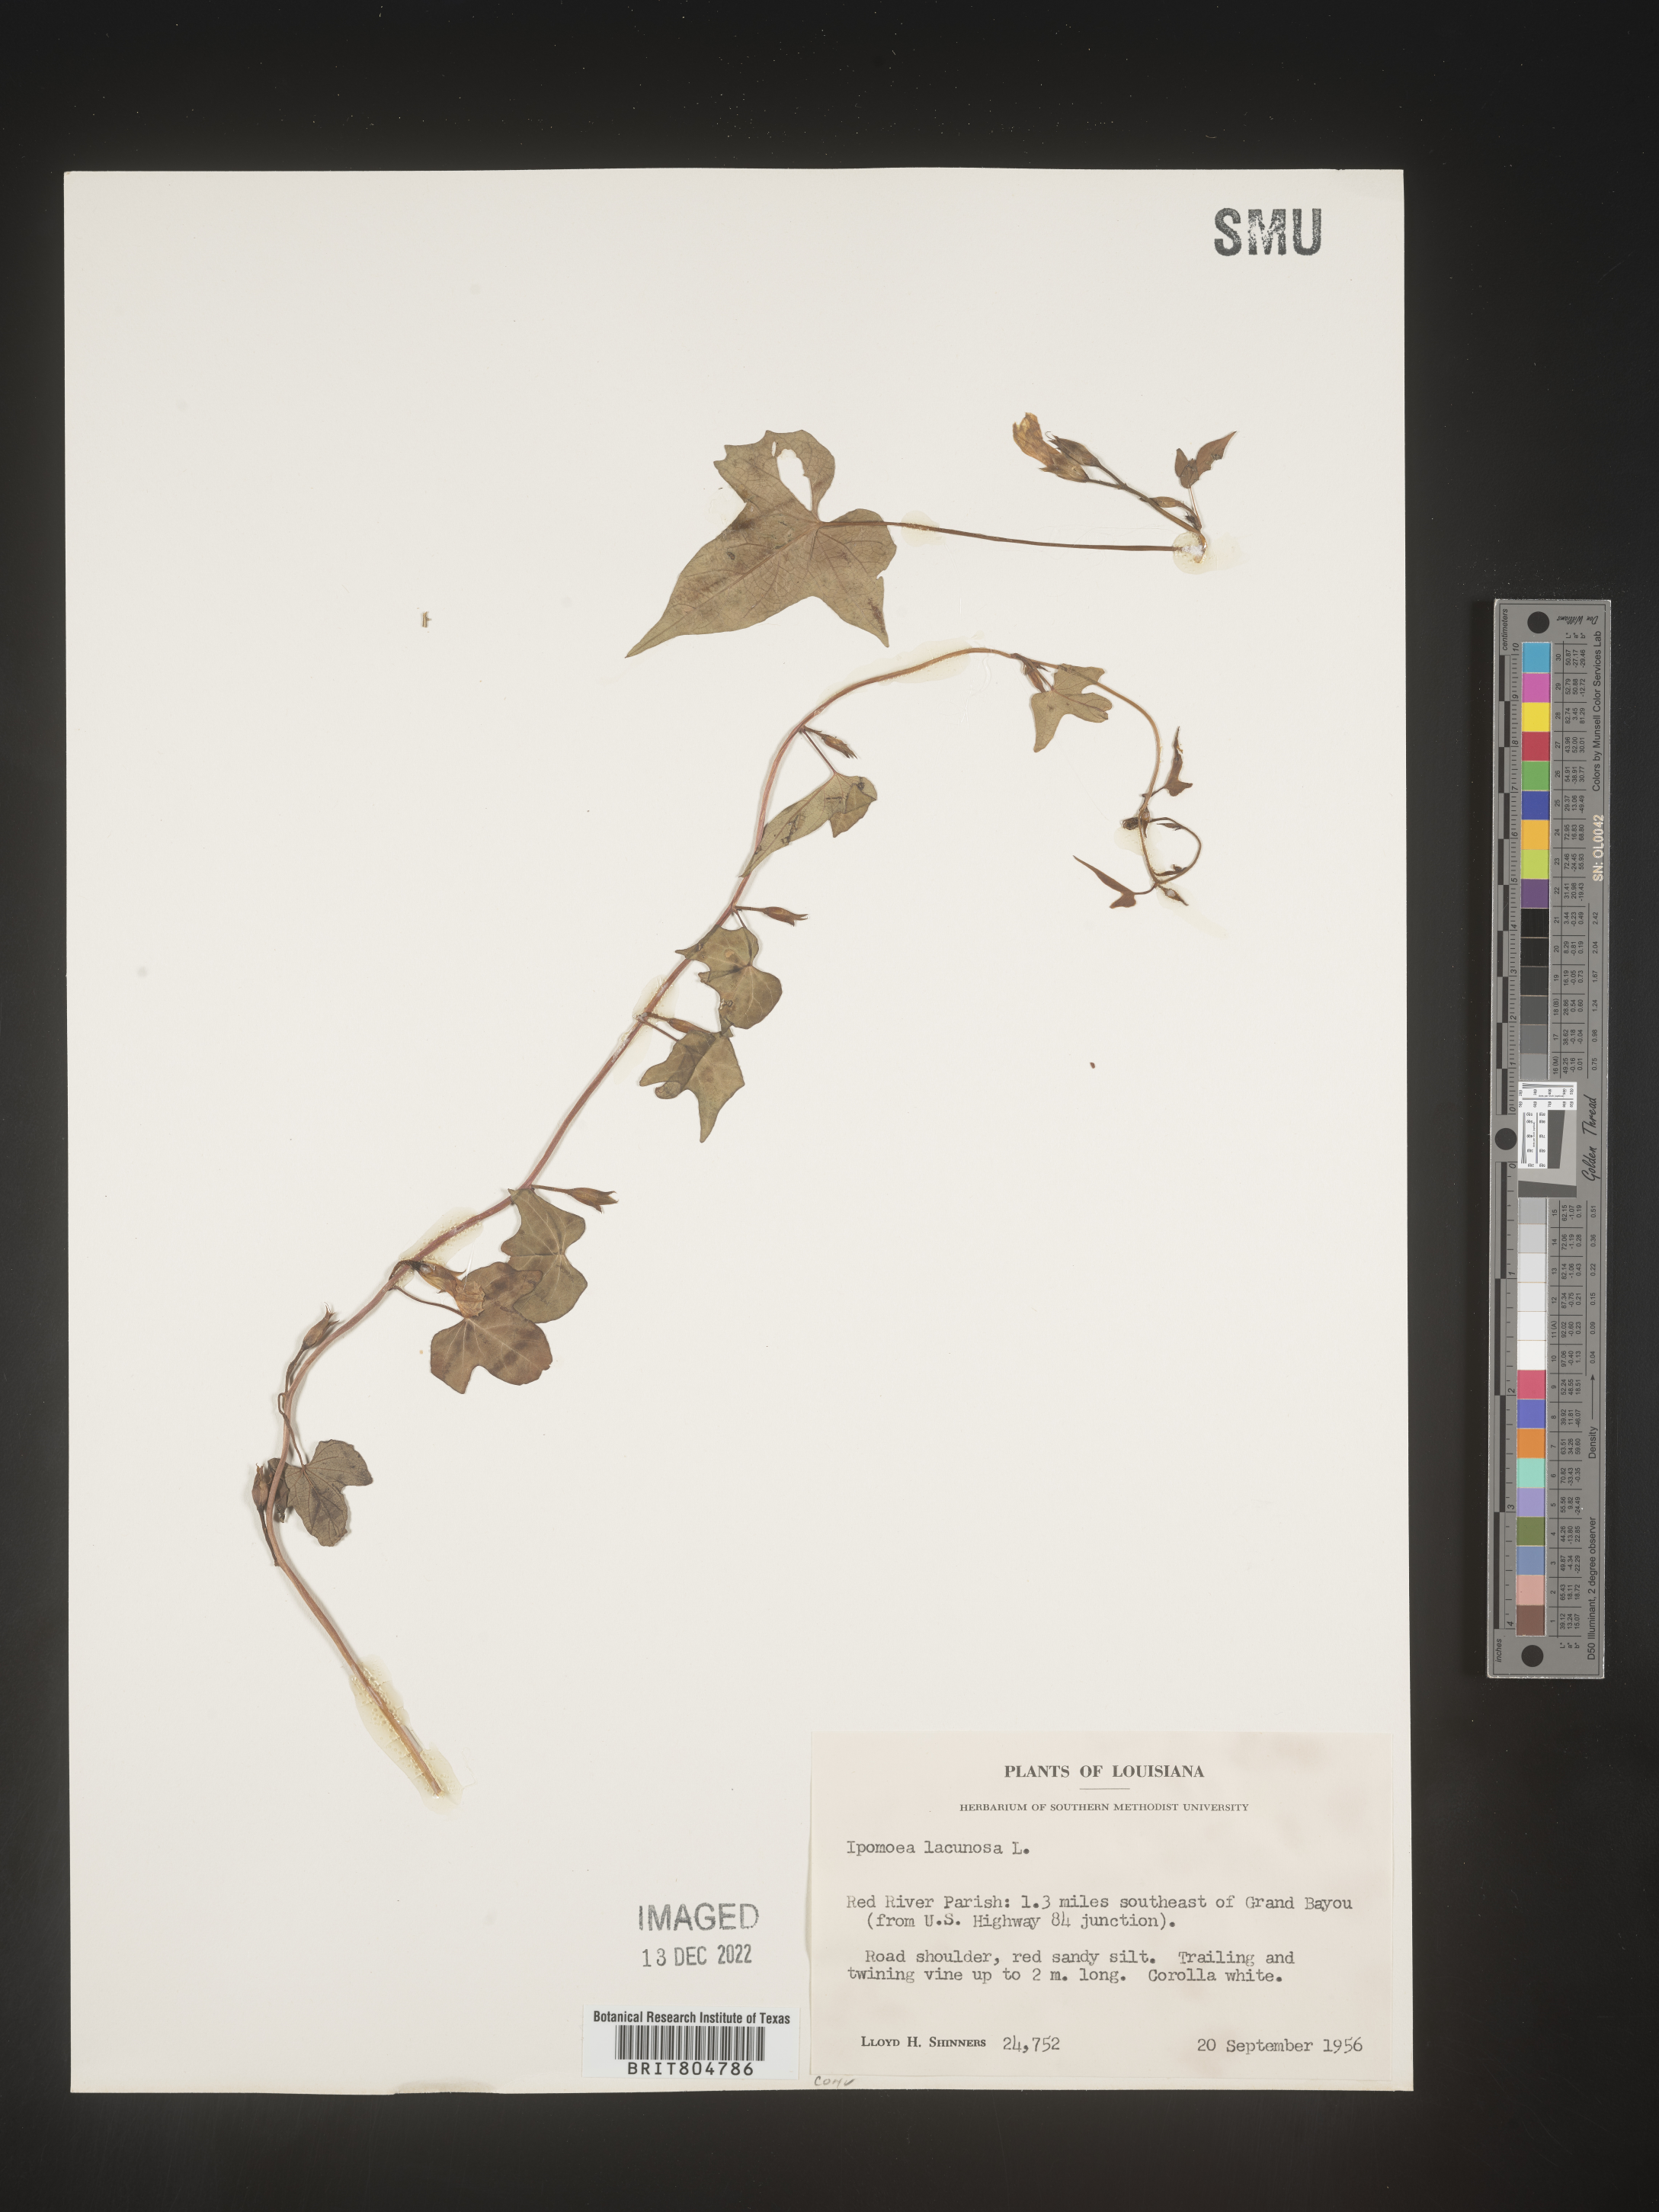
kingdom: Plantae
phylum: Tracheophyta
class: Magnoliopsida
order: Solanales
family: Convolvulaceae
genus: Ipomoea
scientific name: Ipomoea lacunosa
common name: White morning-glory
